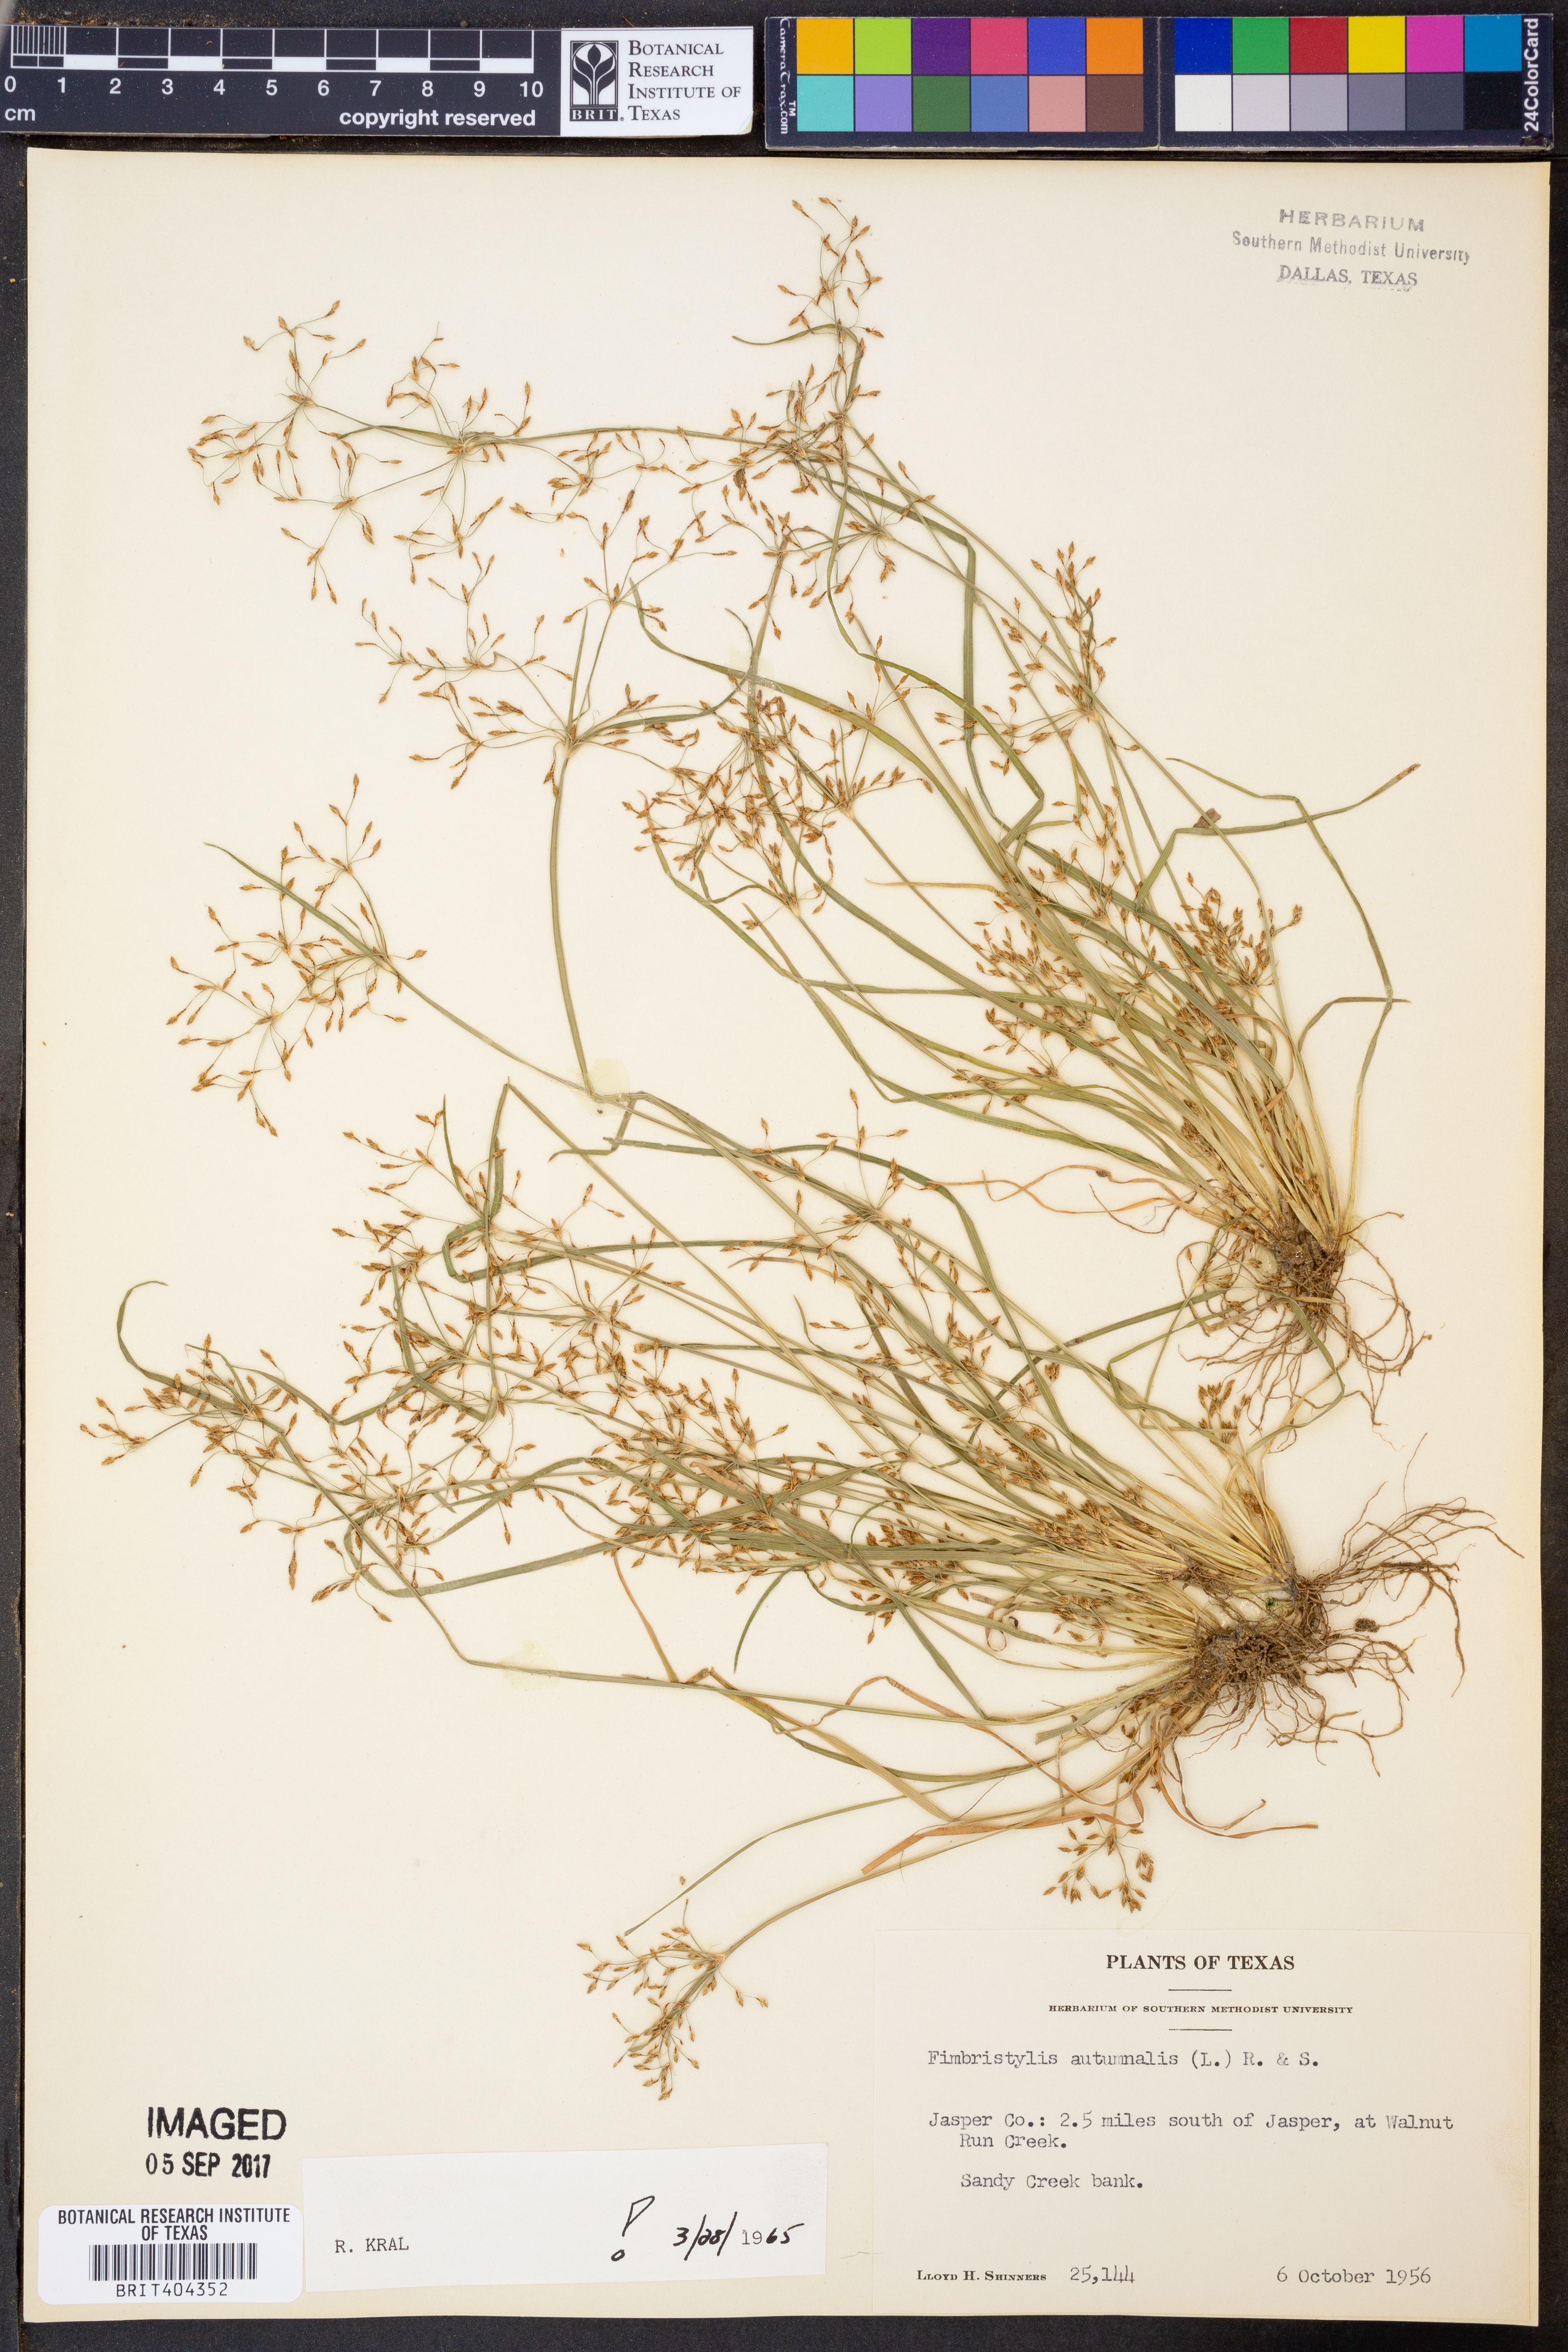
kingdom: Plantae
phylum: Tracheophyta
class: Liliopsida
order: Poales
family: Cyperaceae
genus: Fimbristylis
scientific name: Fimbristylis autumnalis
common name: Slender fimbristylis
